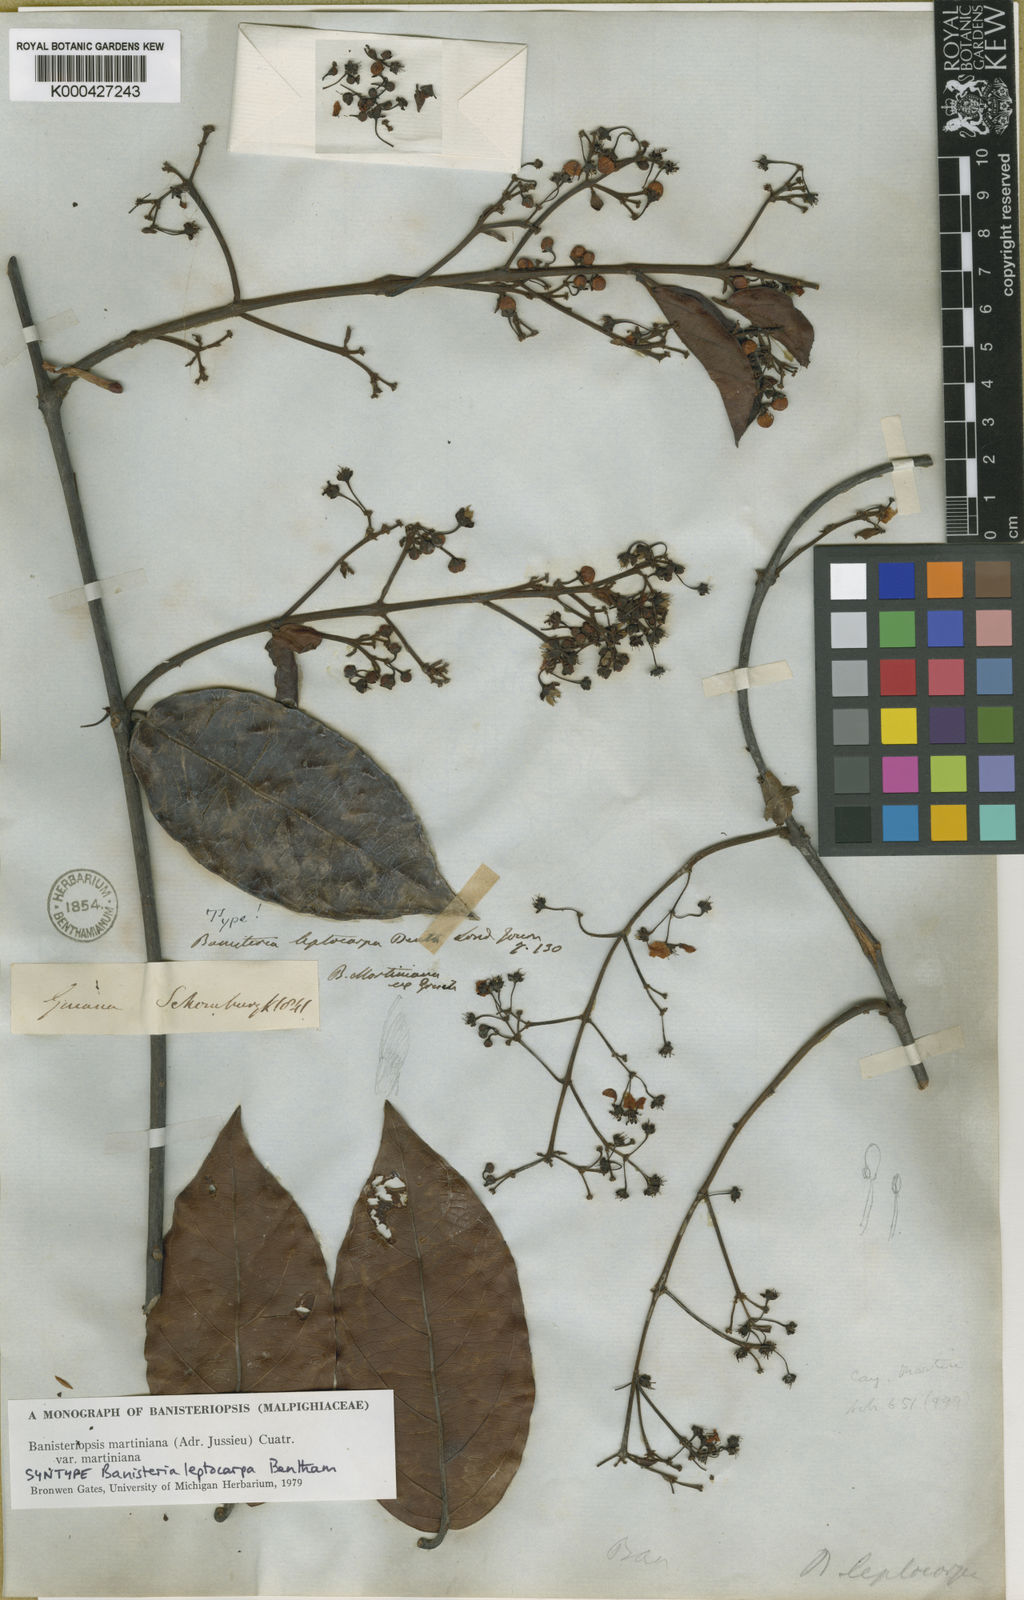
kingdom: Plantae
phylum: Tracheophyta
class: Magnoliopsida
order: Malpighiales
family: Malpighiaceae
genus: Banisteriopsis
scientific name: Banisteriopsis martiniana
